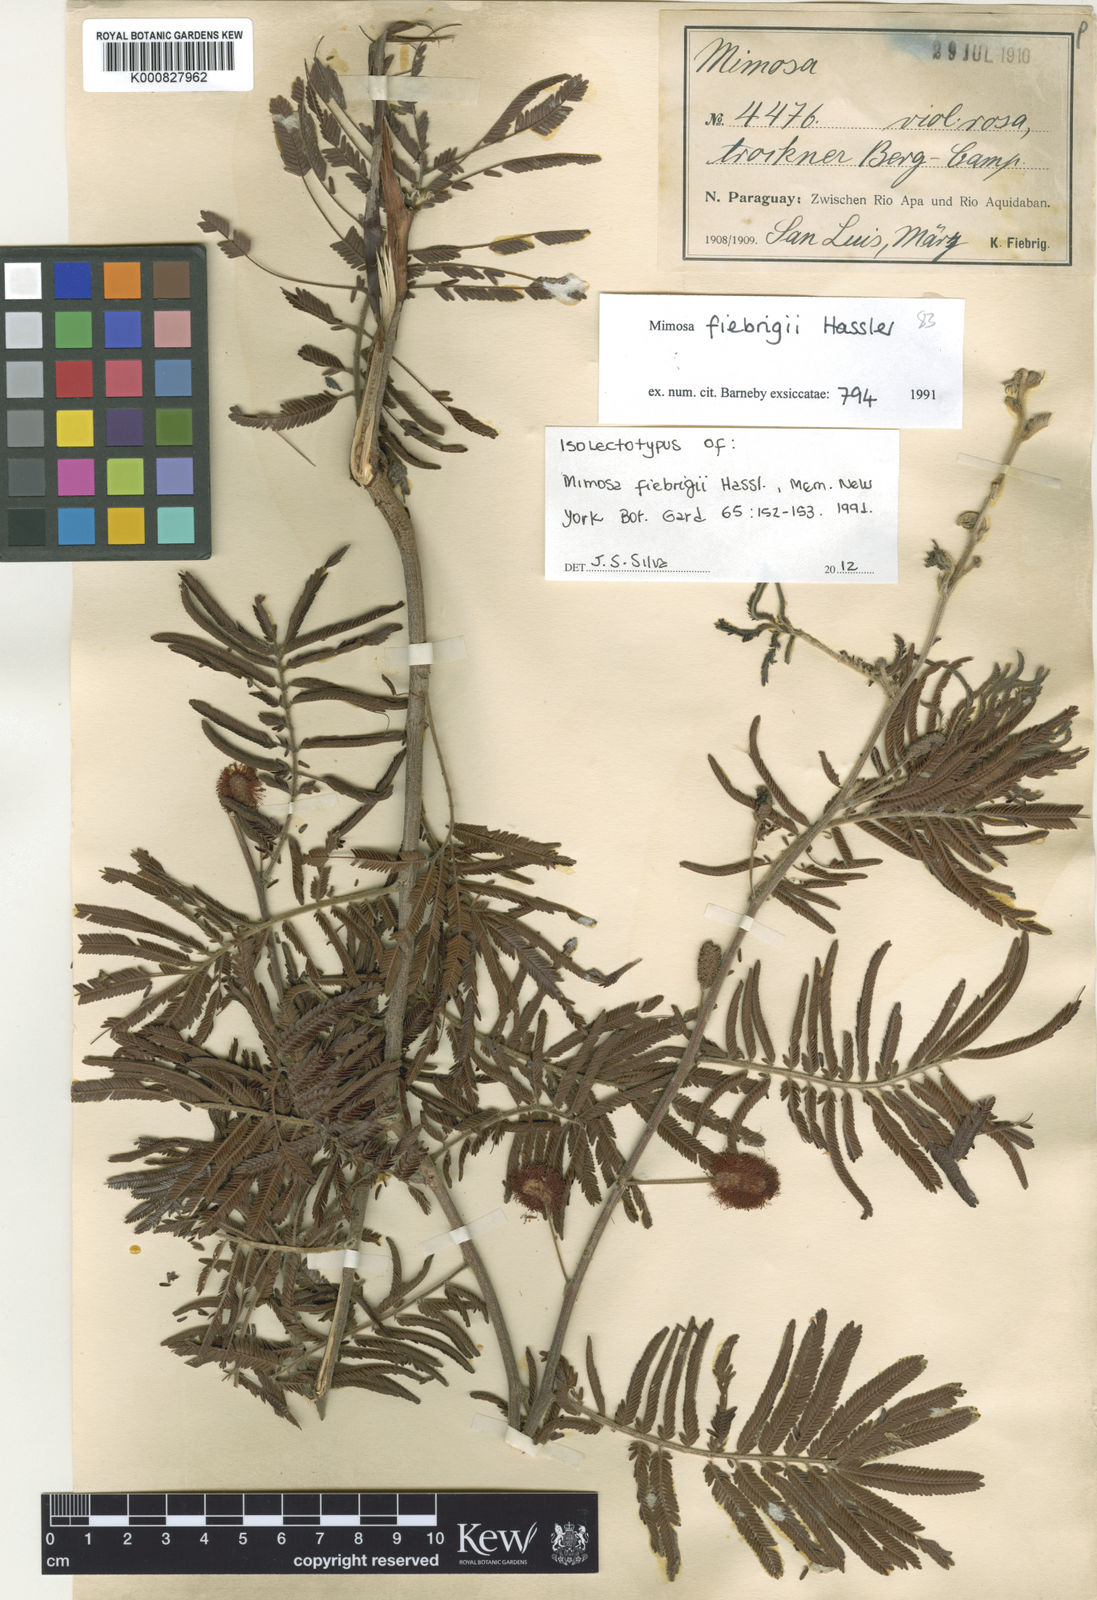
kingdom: Plantae
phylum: Tracheophyta
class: Magnoliopsida
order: Fabales
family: Fabaceae
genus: Mimosa
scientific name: Mimosa fiebrigii
